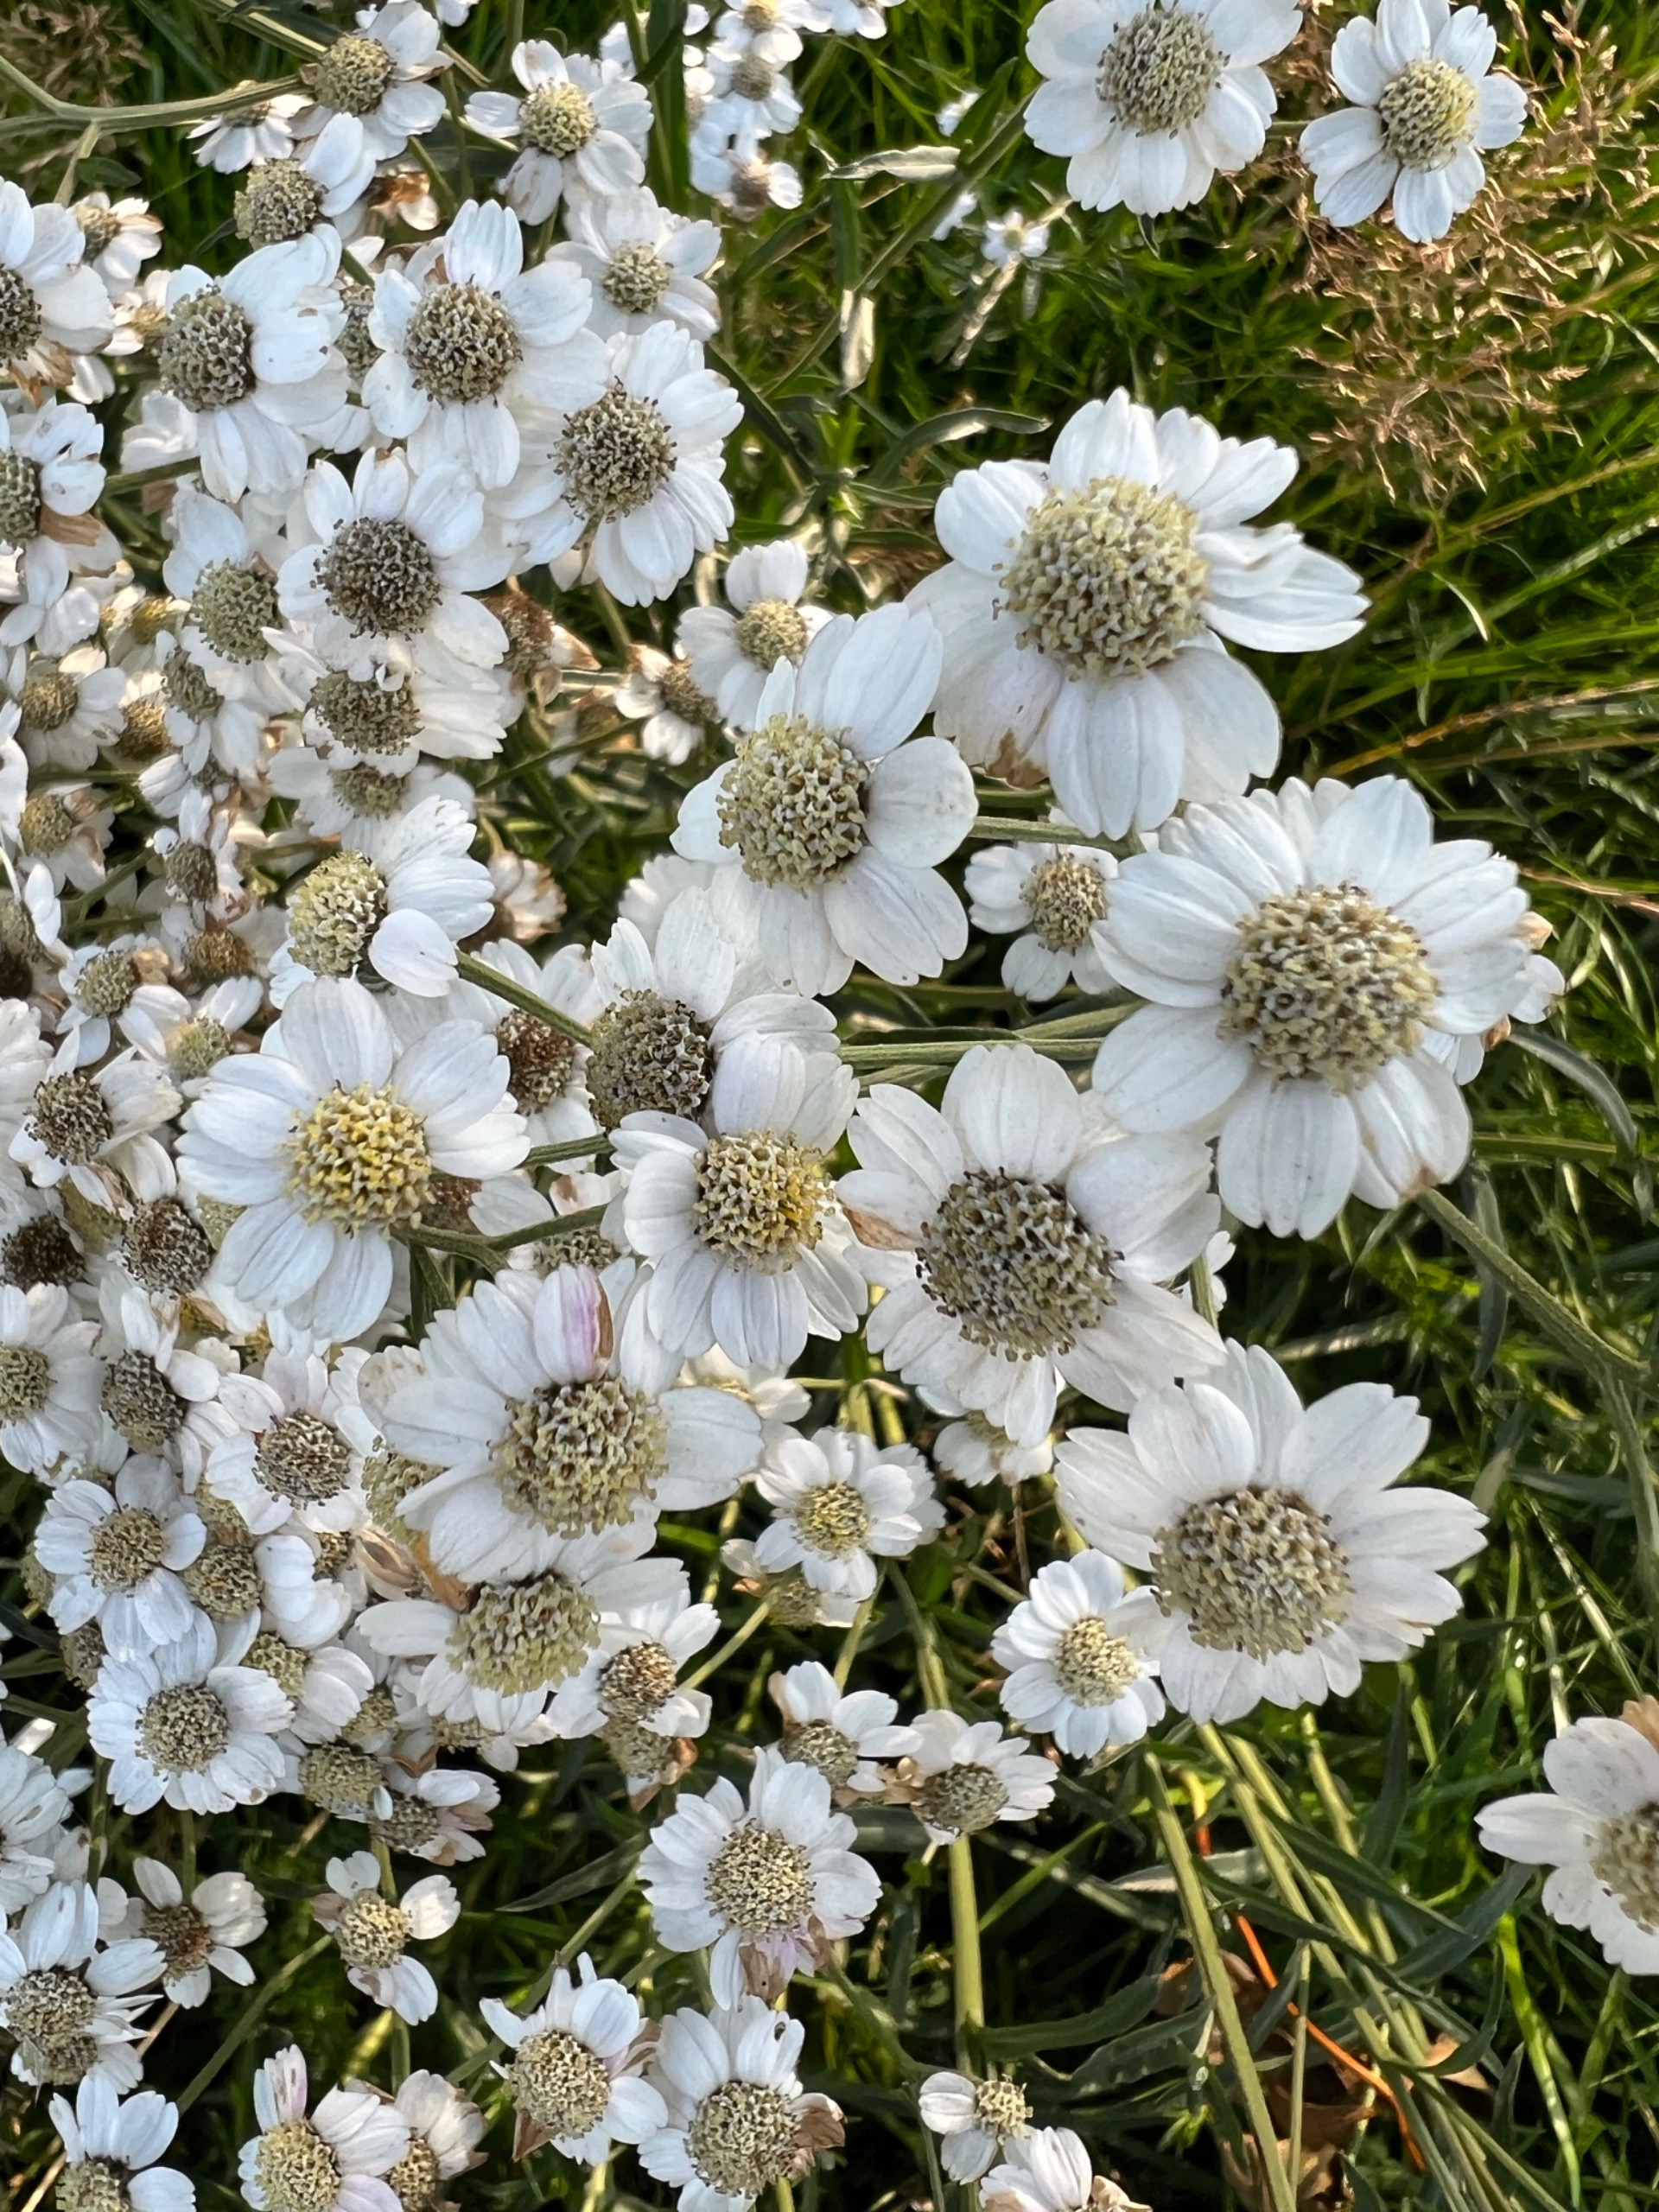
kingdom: Plantae
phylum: Tracheophyta
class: Magnoliopsida
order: Asterales
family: Asteraceae
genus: Achillea
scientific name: Achillea ptarmica
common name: Nyse-røllike
